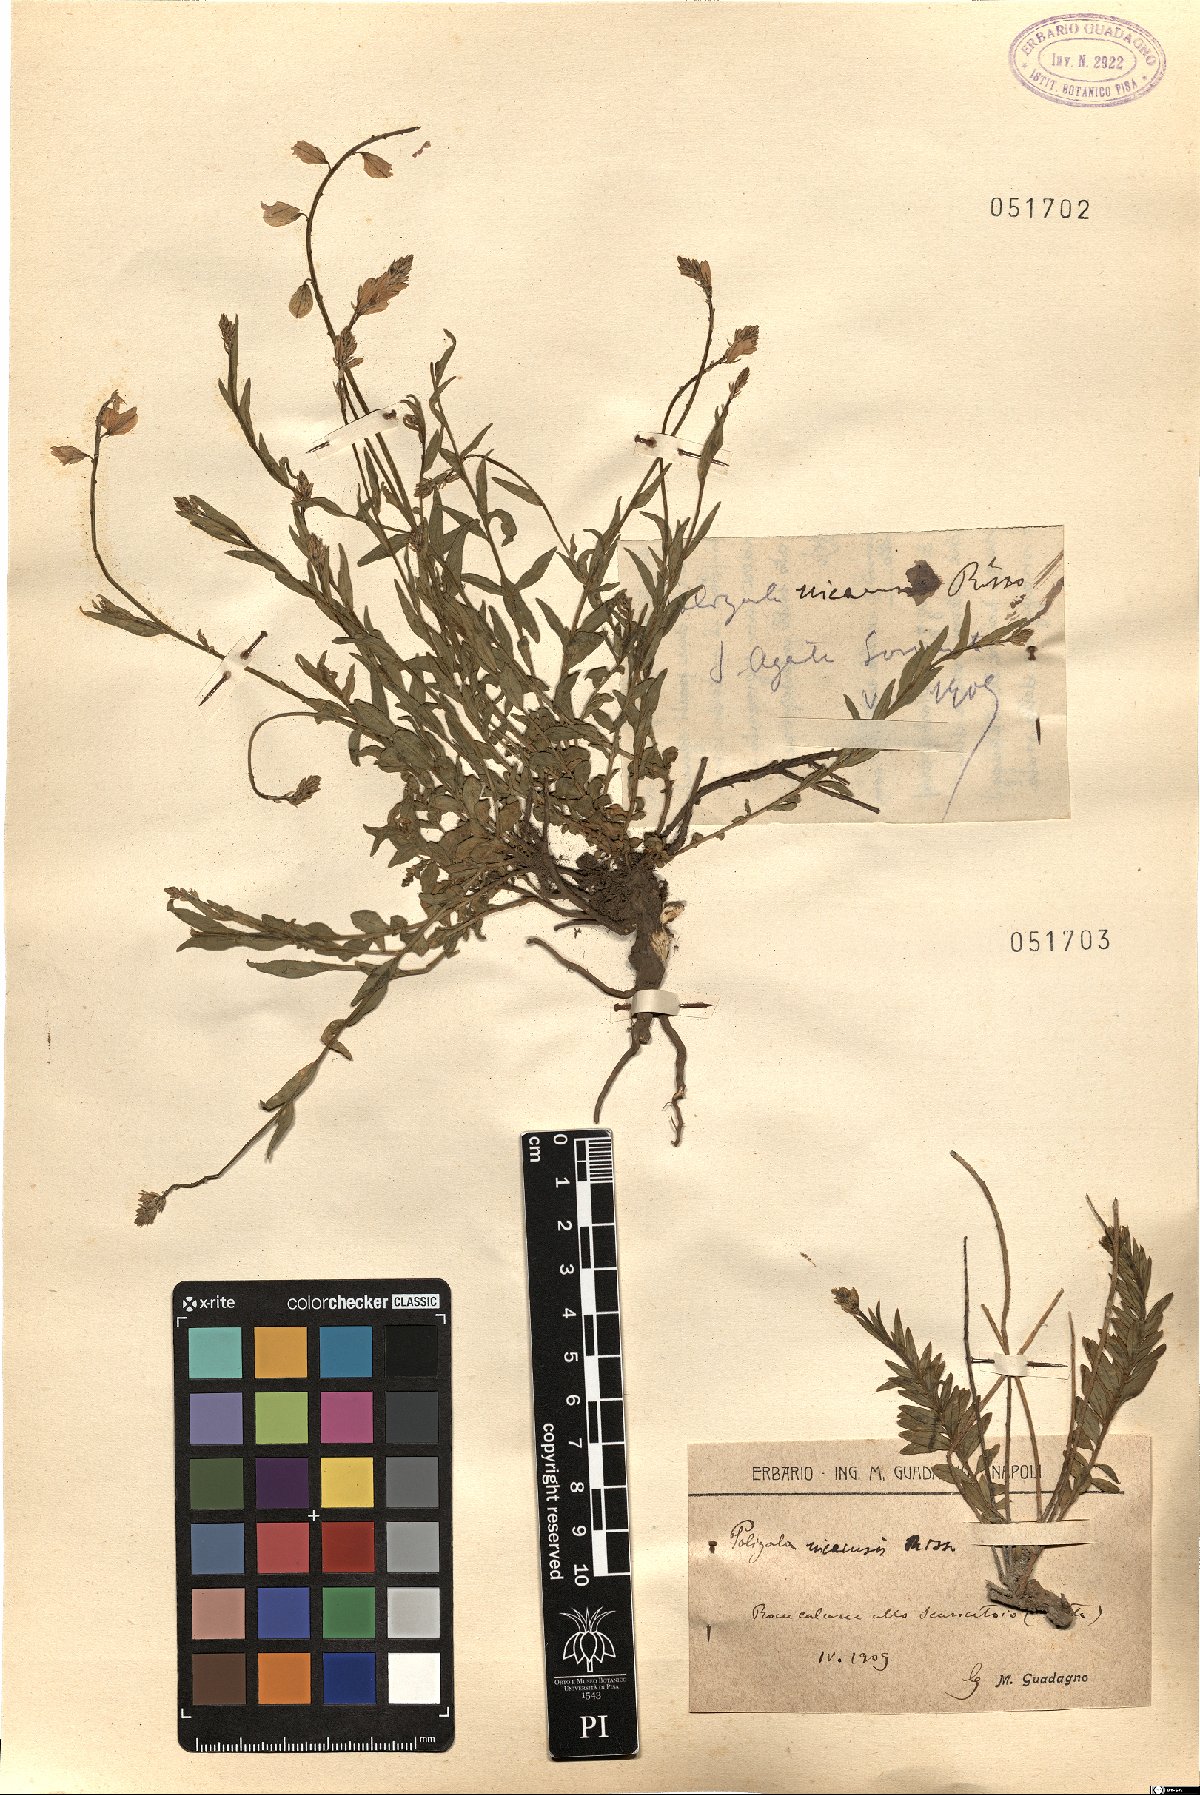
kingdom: Plantae
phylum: Tracheophyta
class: Magnoliopsida
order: Fabales
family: Polygalaceae
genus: Polygala
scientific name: Polygala nicaeensis
